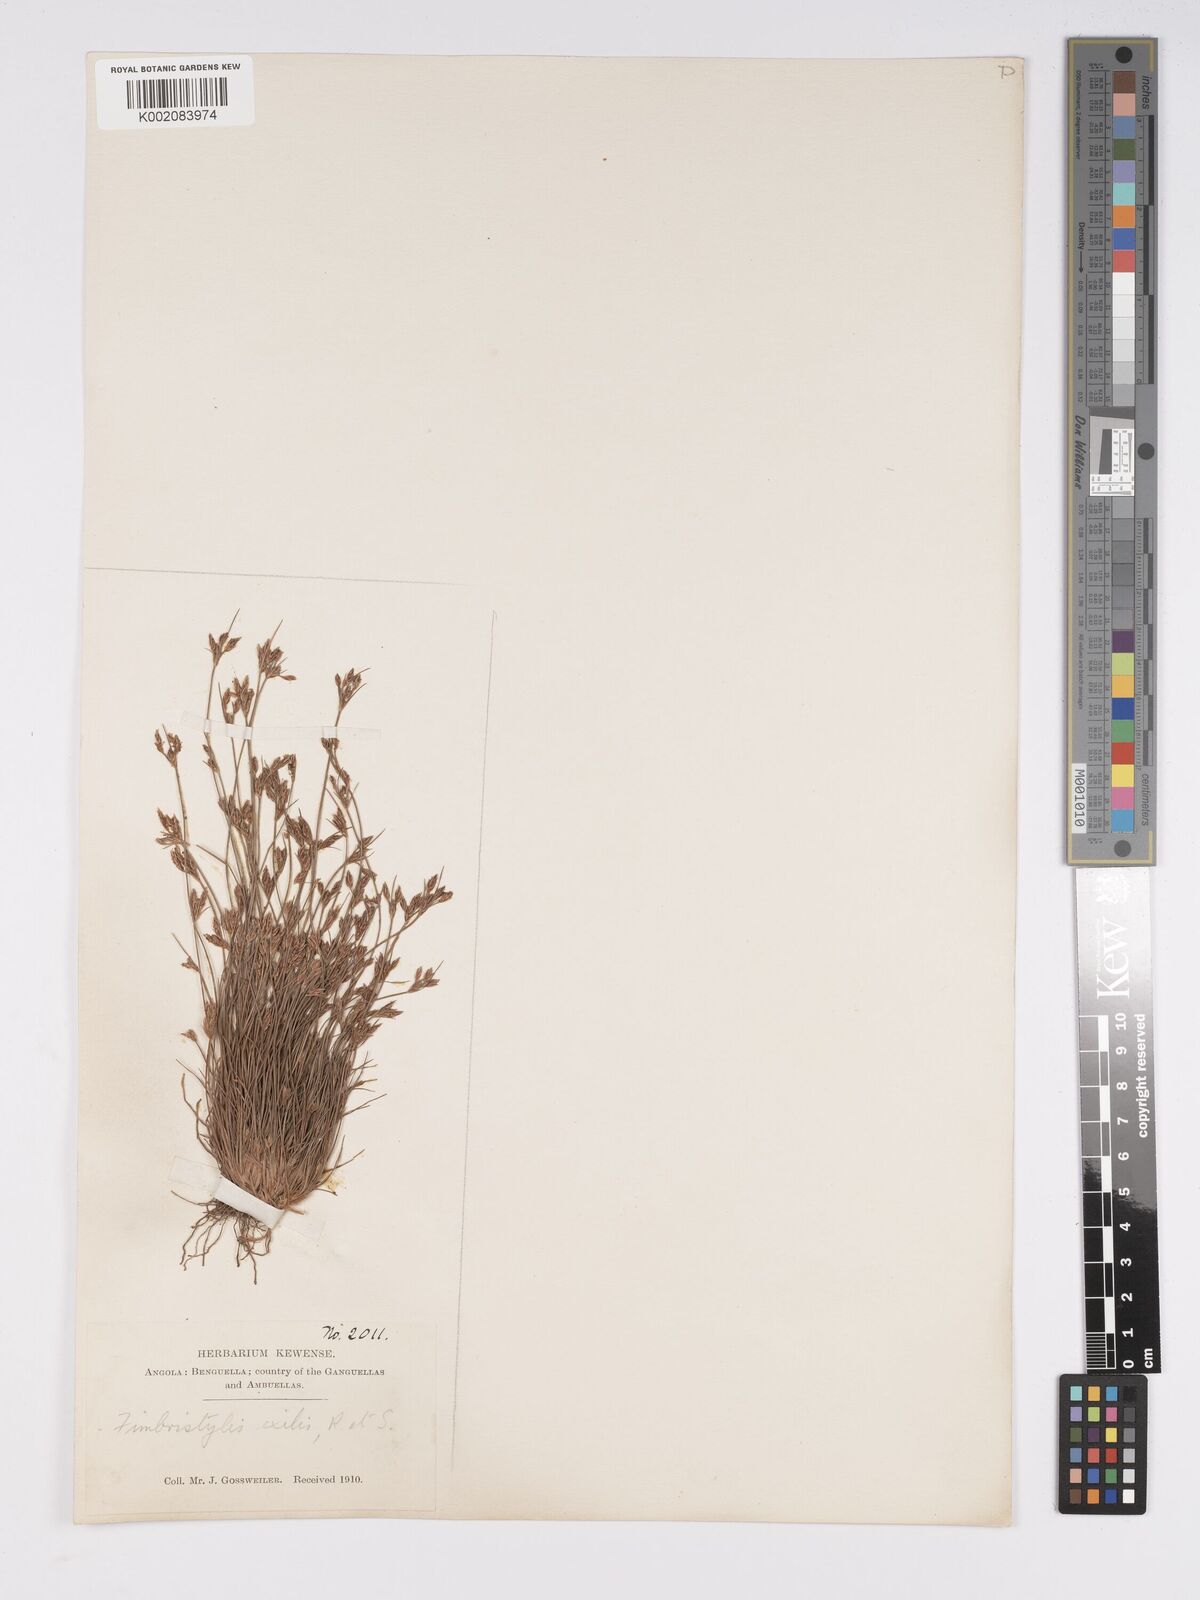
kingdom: Plantae
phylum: Tracheophyta
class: Liliopsida
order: Poales
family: Cyperaceae
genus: Bulbostylis
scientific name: Bulbostylis hispidula
